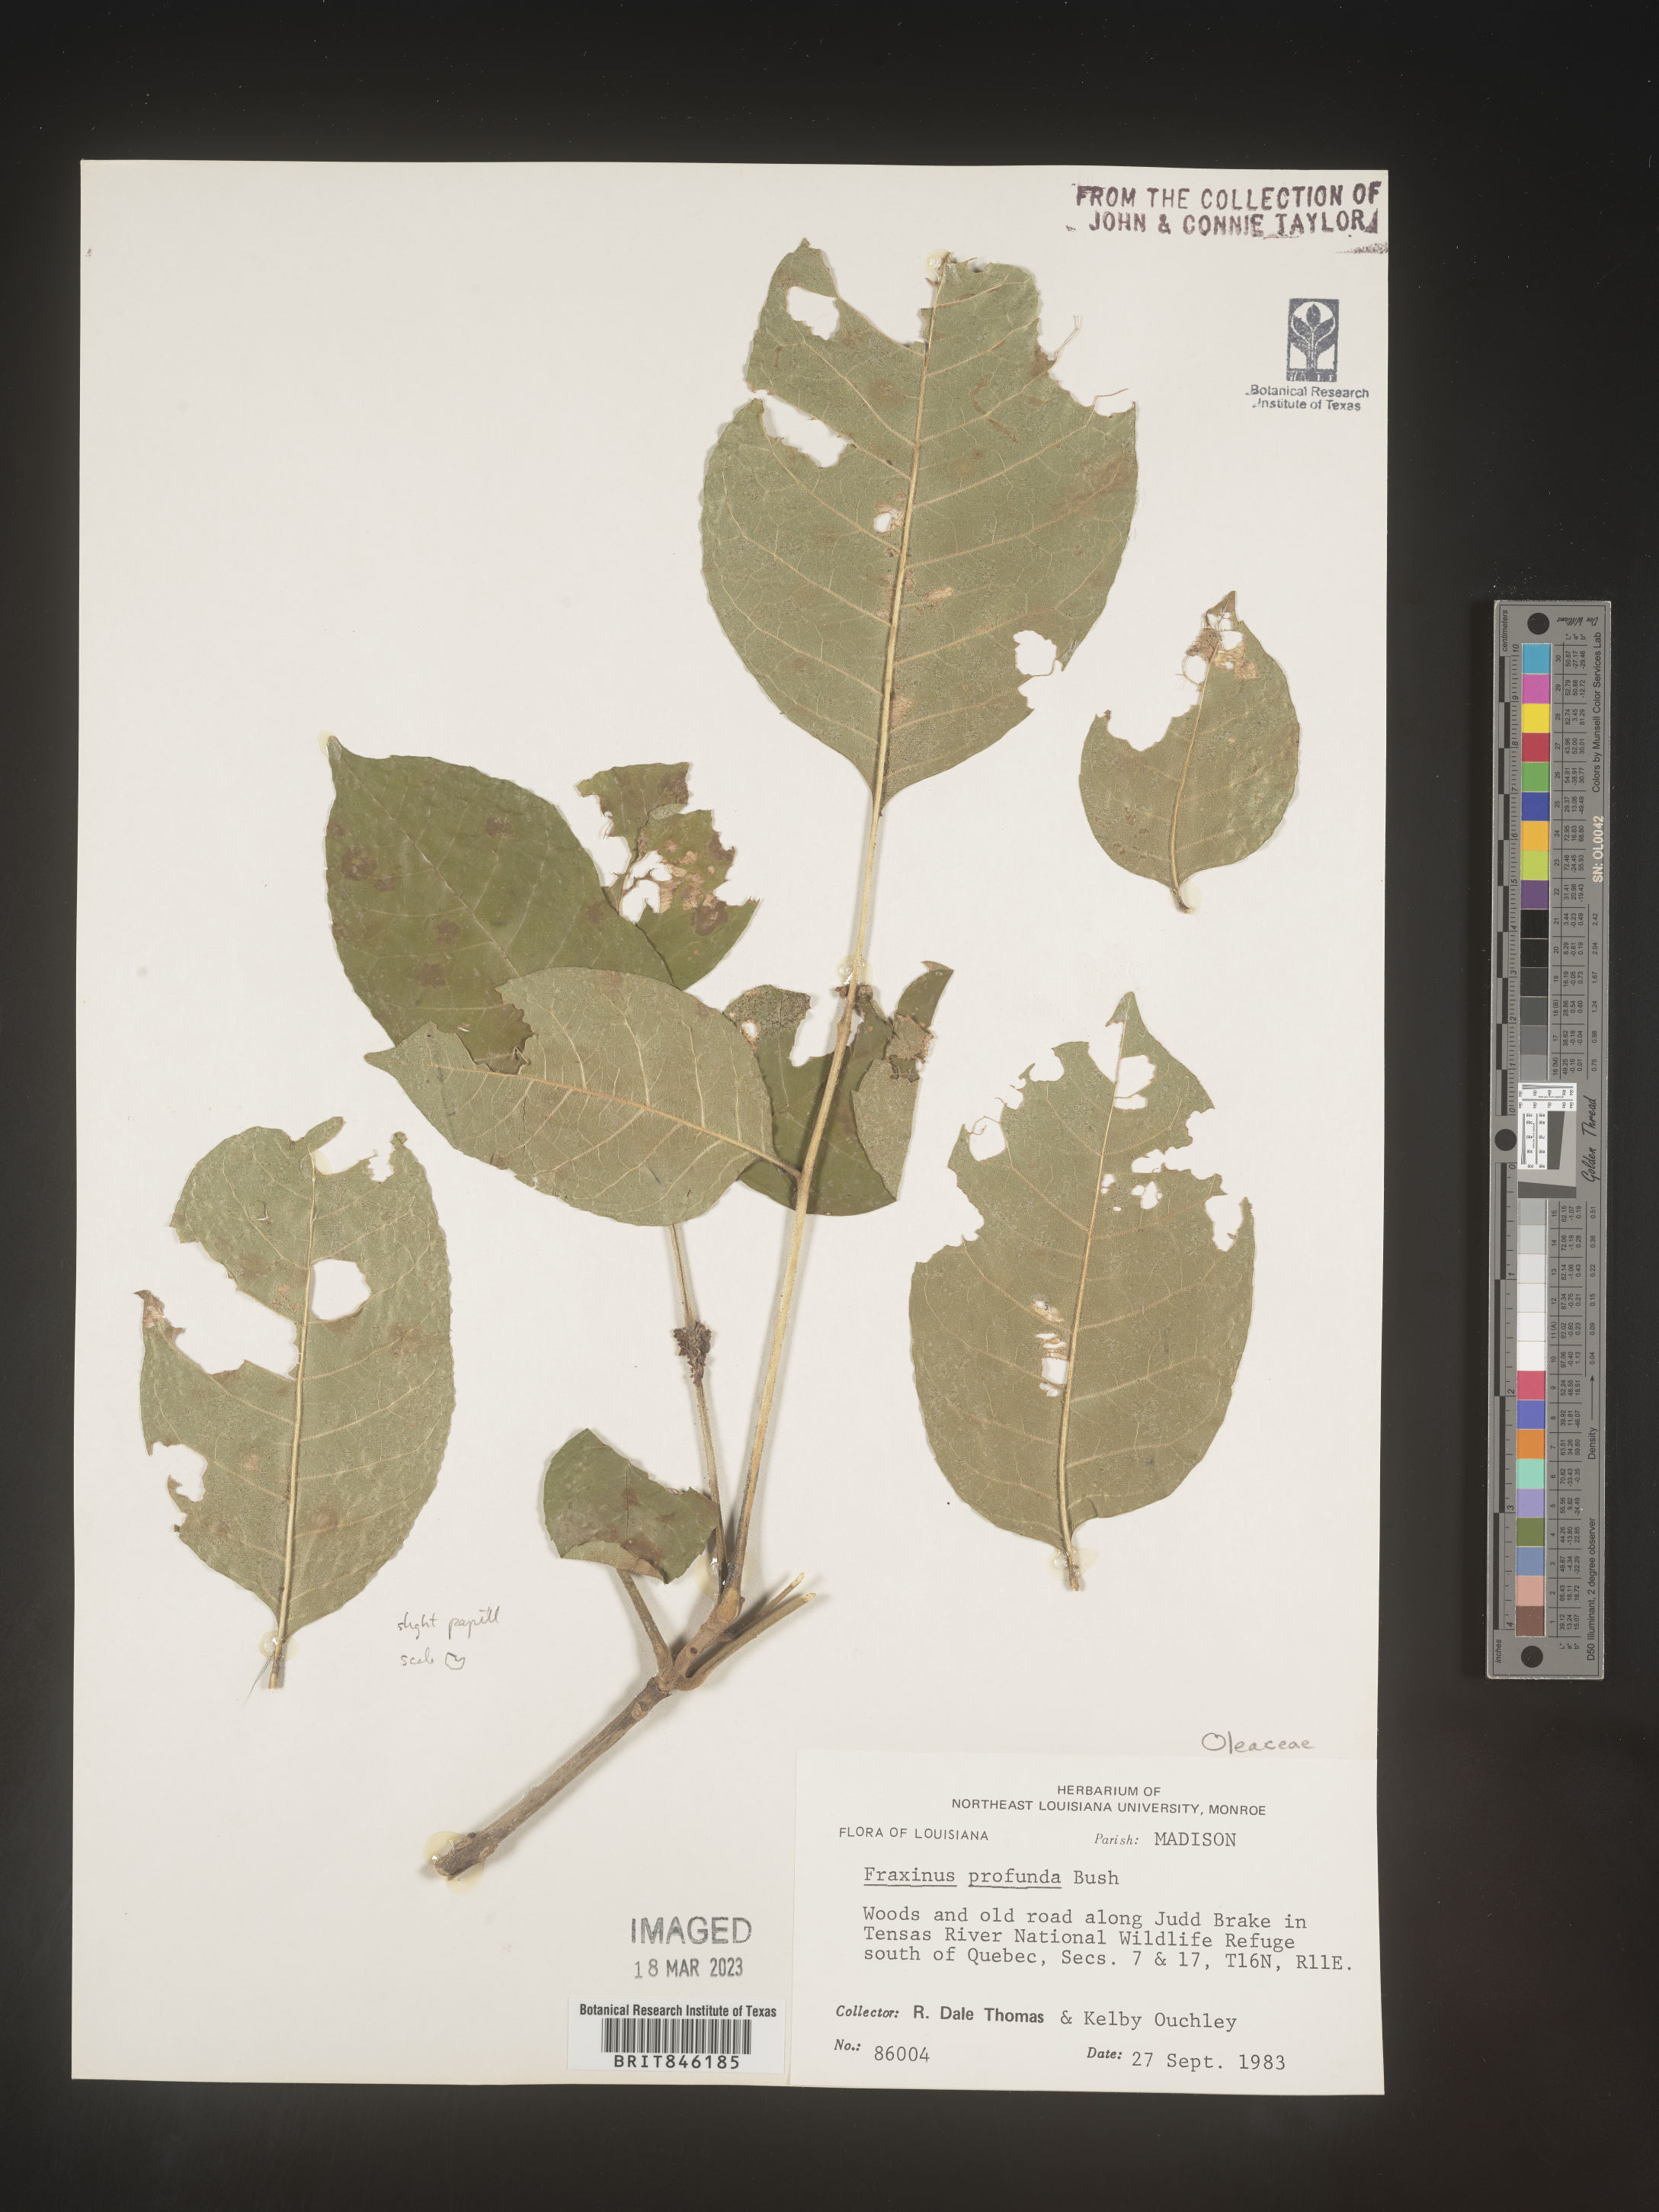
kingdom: Plantae
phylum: Tracheophyta
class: Magnoliopsida
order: Lamiales
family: Oleaceae
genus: Fraxinus
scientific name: Fraxinus profunda
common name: Pumpkin ash
